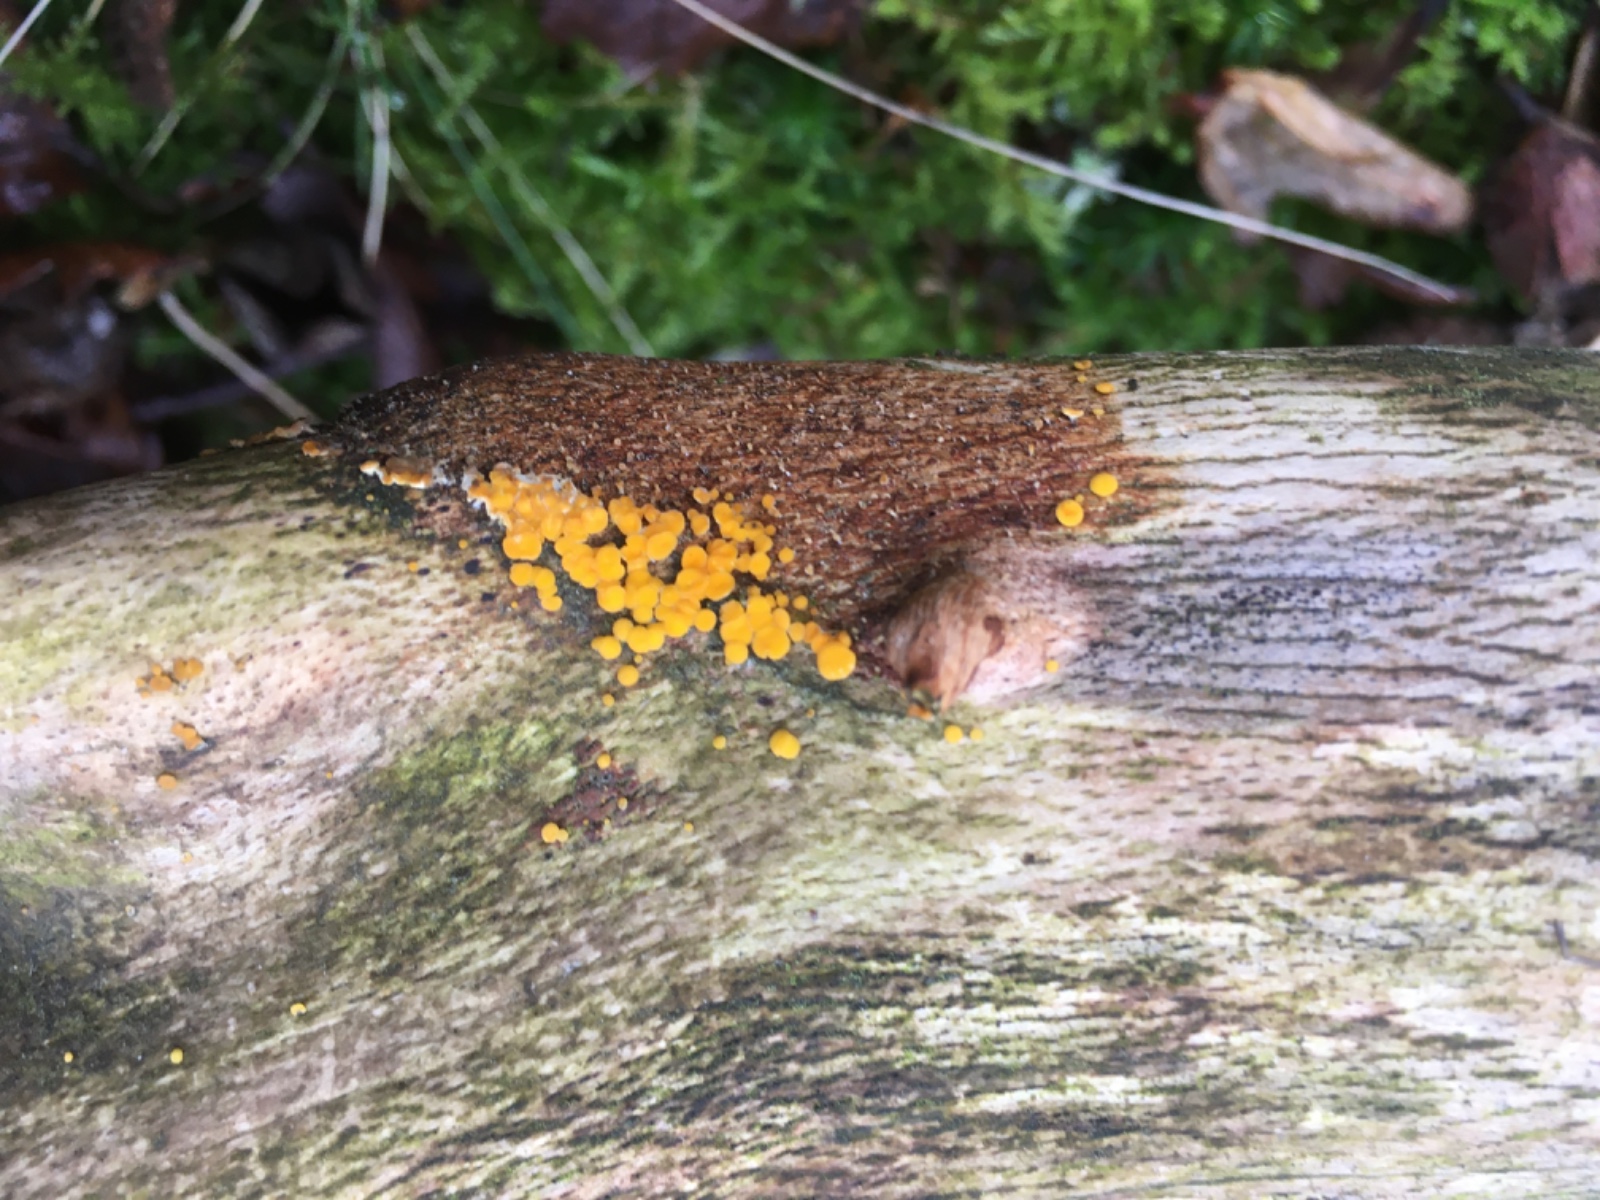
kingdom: Fungi
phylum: Ascomycota
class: Leotiomycetes
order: Helotiales
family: Pezizellaceae
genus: Calycina
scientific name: Calycina citrina
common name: almindelig gulskive
